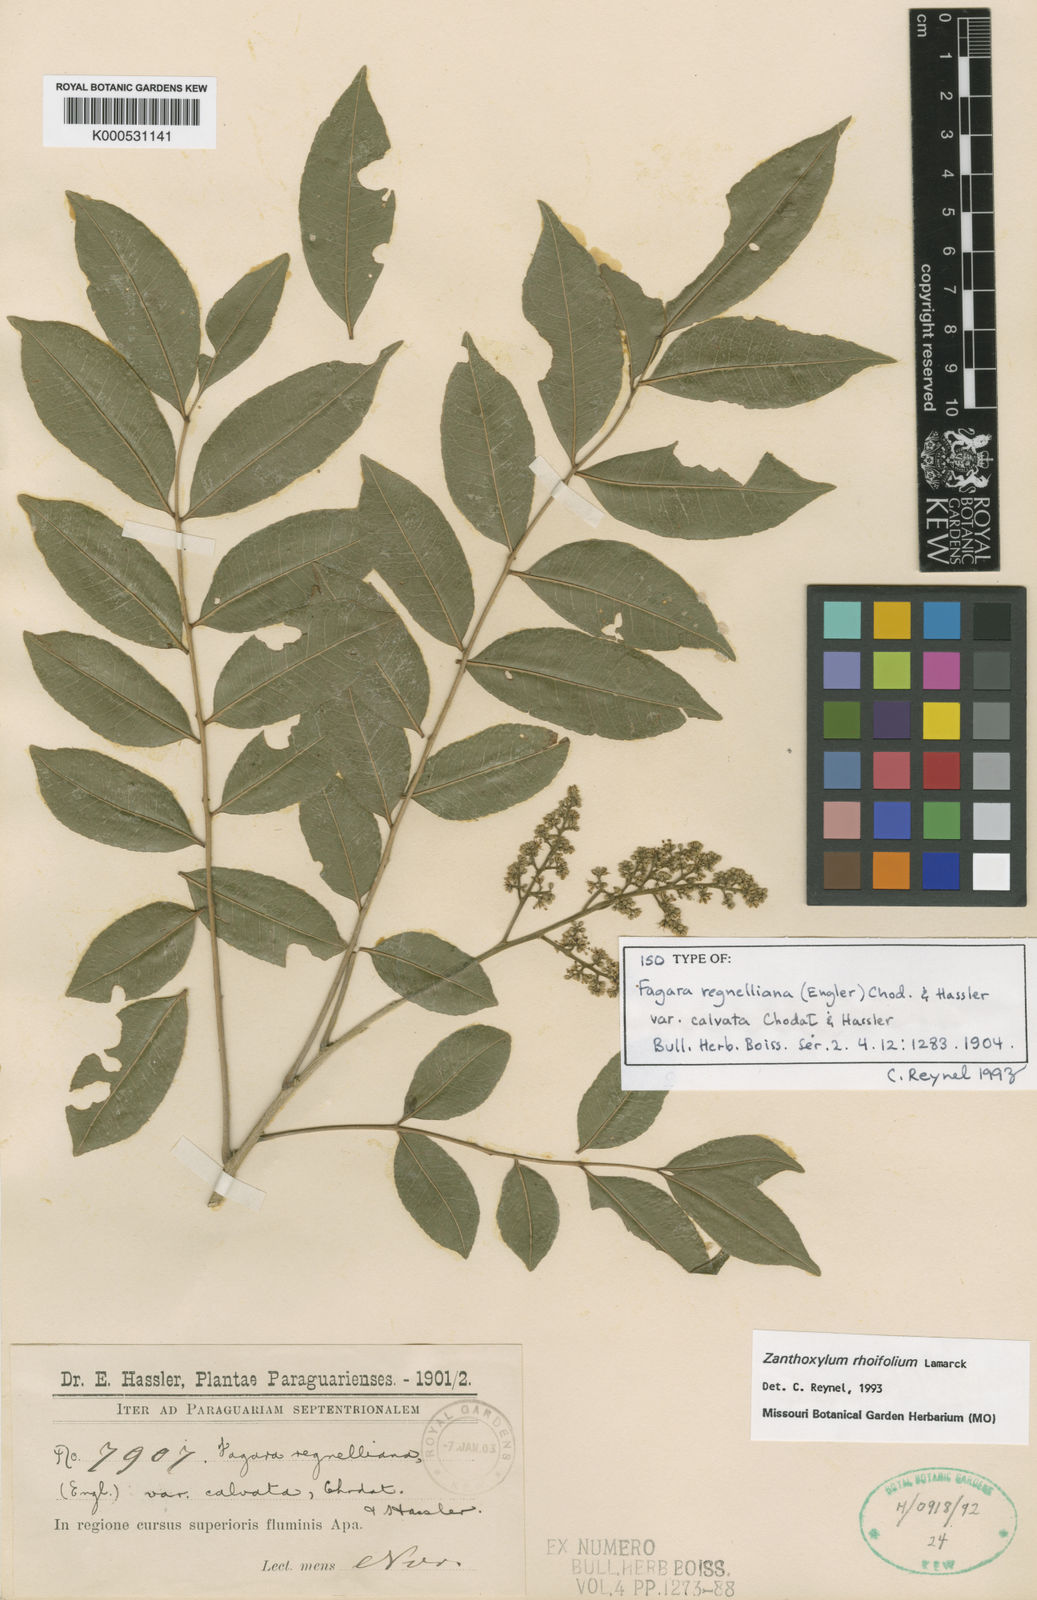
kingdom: Plantae
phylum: Tracheophyta
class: Magnoliopsida
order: Sapindales
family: Rutaceae
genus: Zanthoxylum
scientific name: Zanthoxylum rhoifolium
